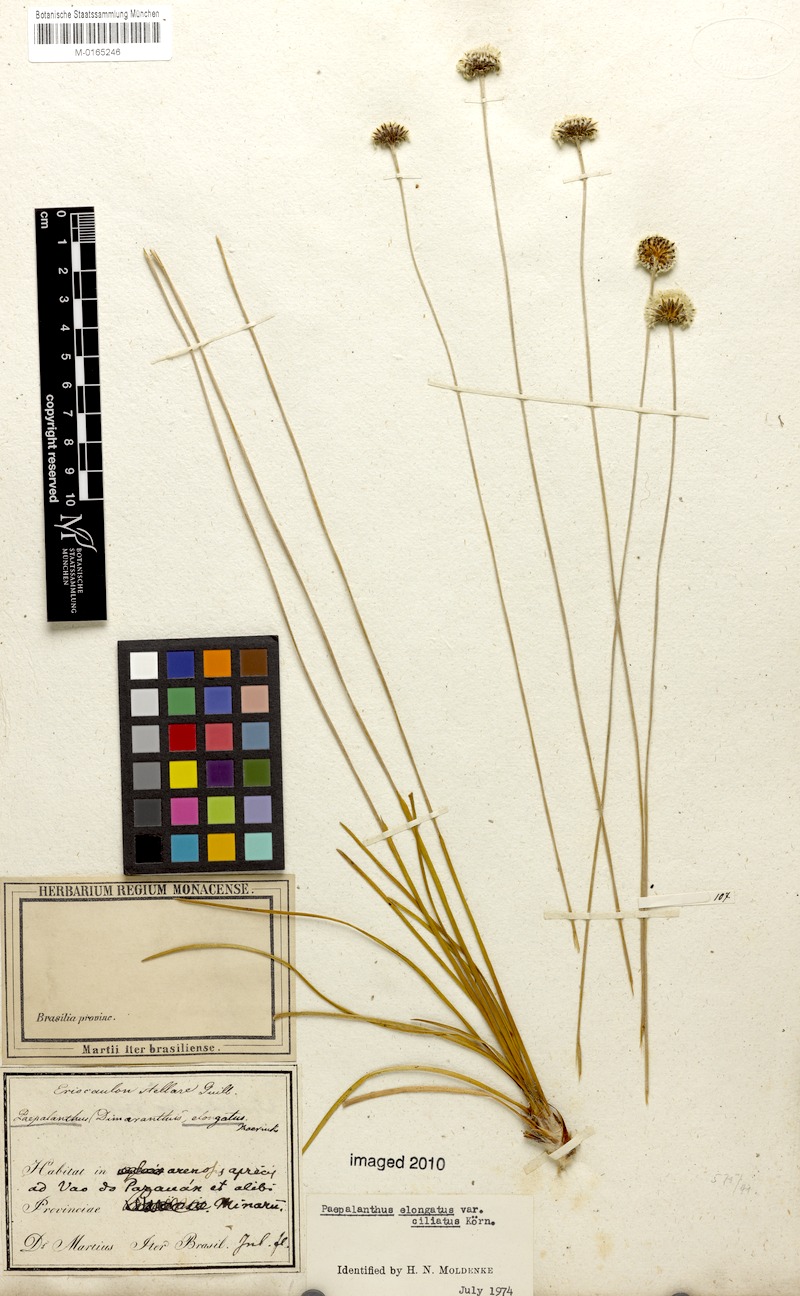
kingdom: Plantae
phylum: Tracheophyta
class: Liliopsida
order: Poales
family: Eriocaulaceae
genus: Paepalanthus
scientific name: Paepalanthus elongatus
